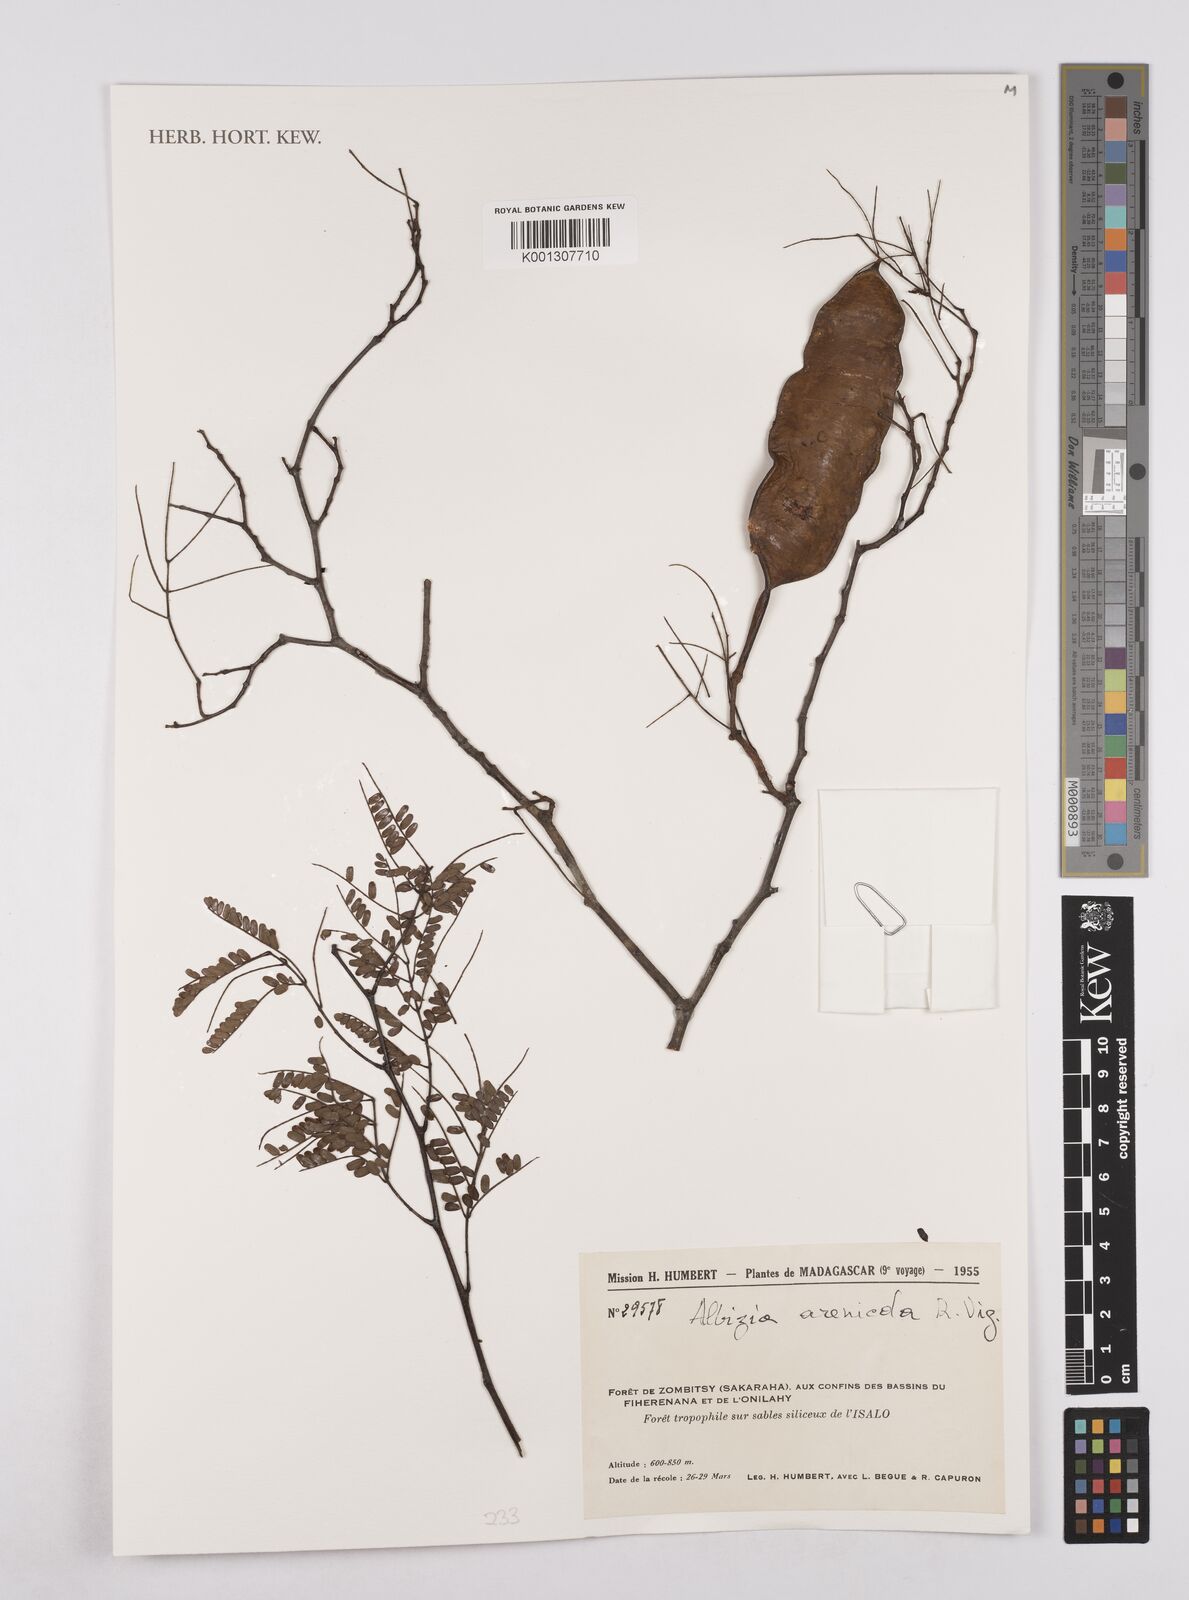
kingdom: Plantae
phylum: Tracheophyta
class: Magnoliopsida
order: Fabales
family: Fabaceae
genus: Albizia
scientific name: Albizia arenicola
